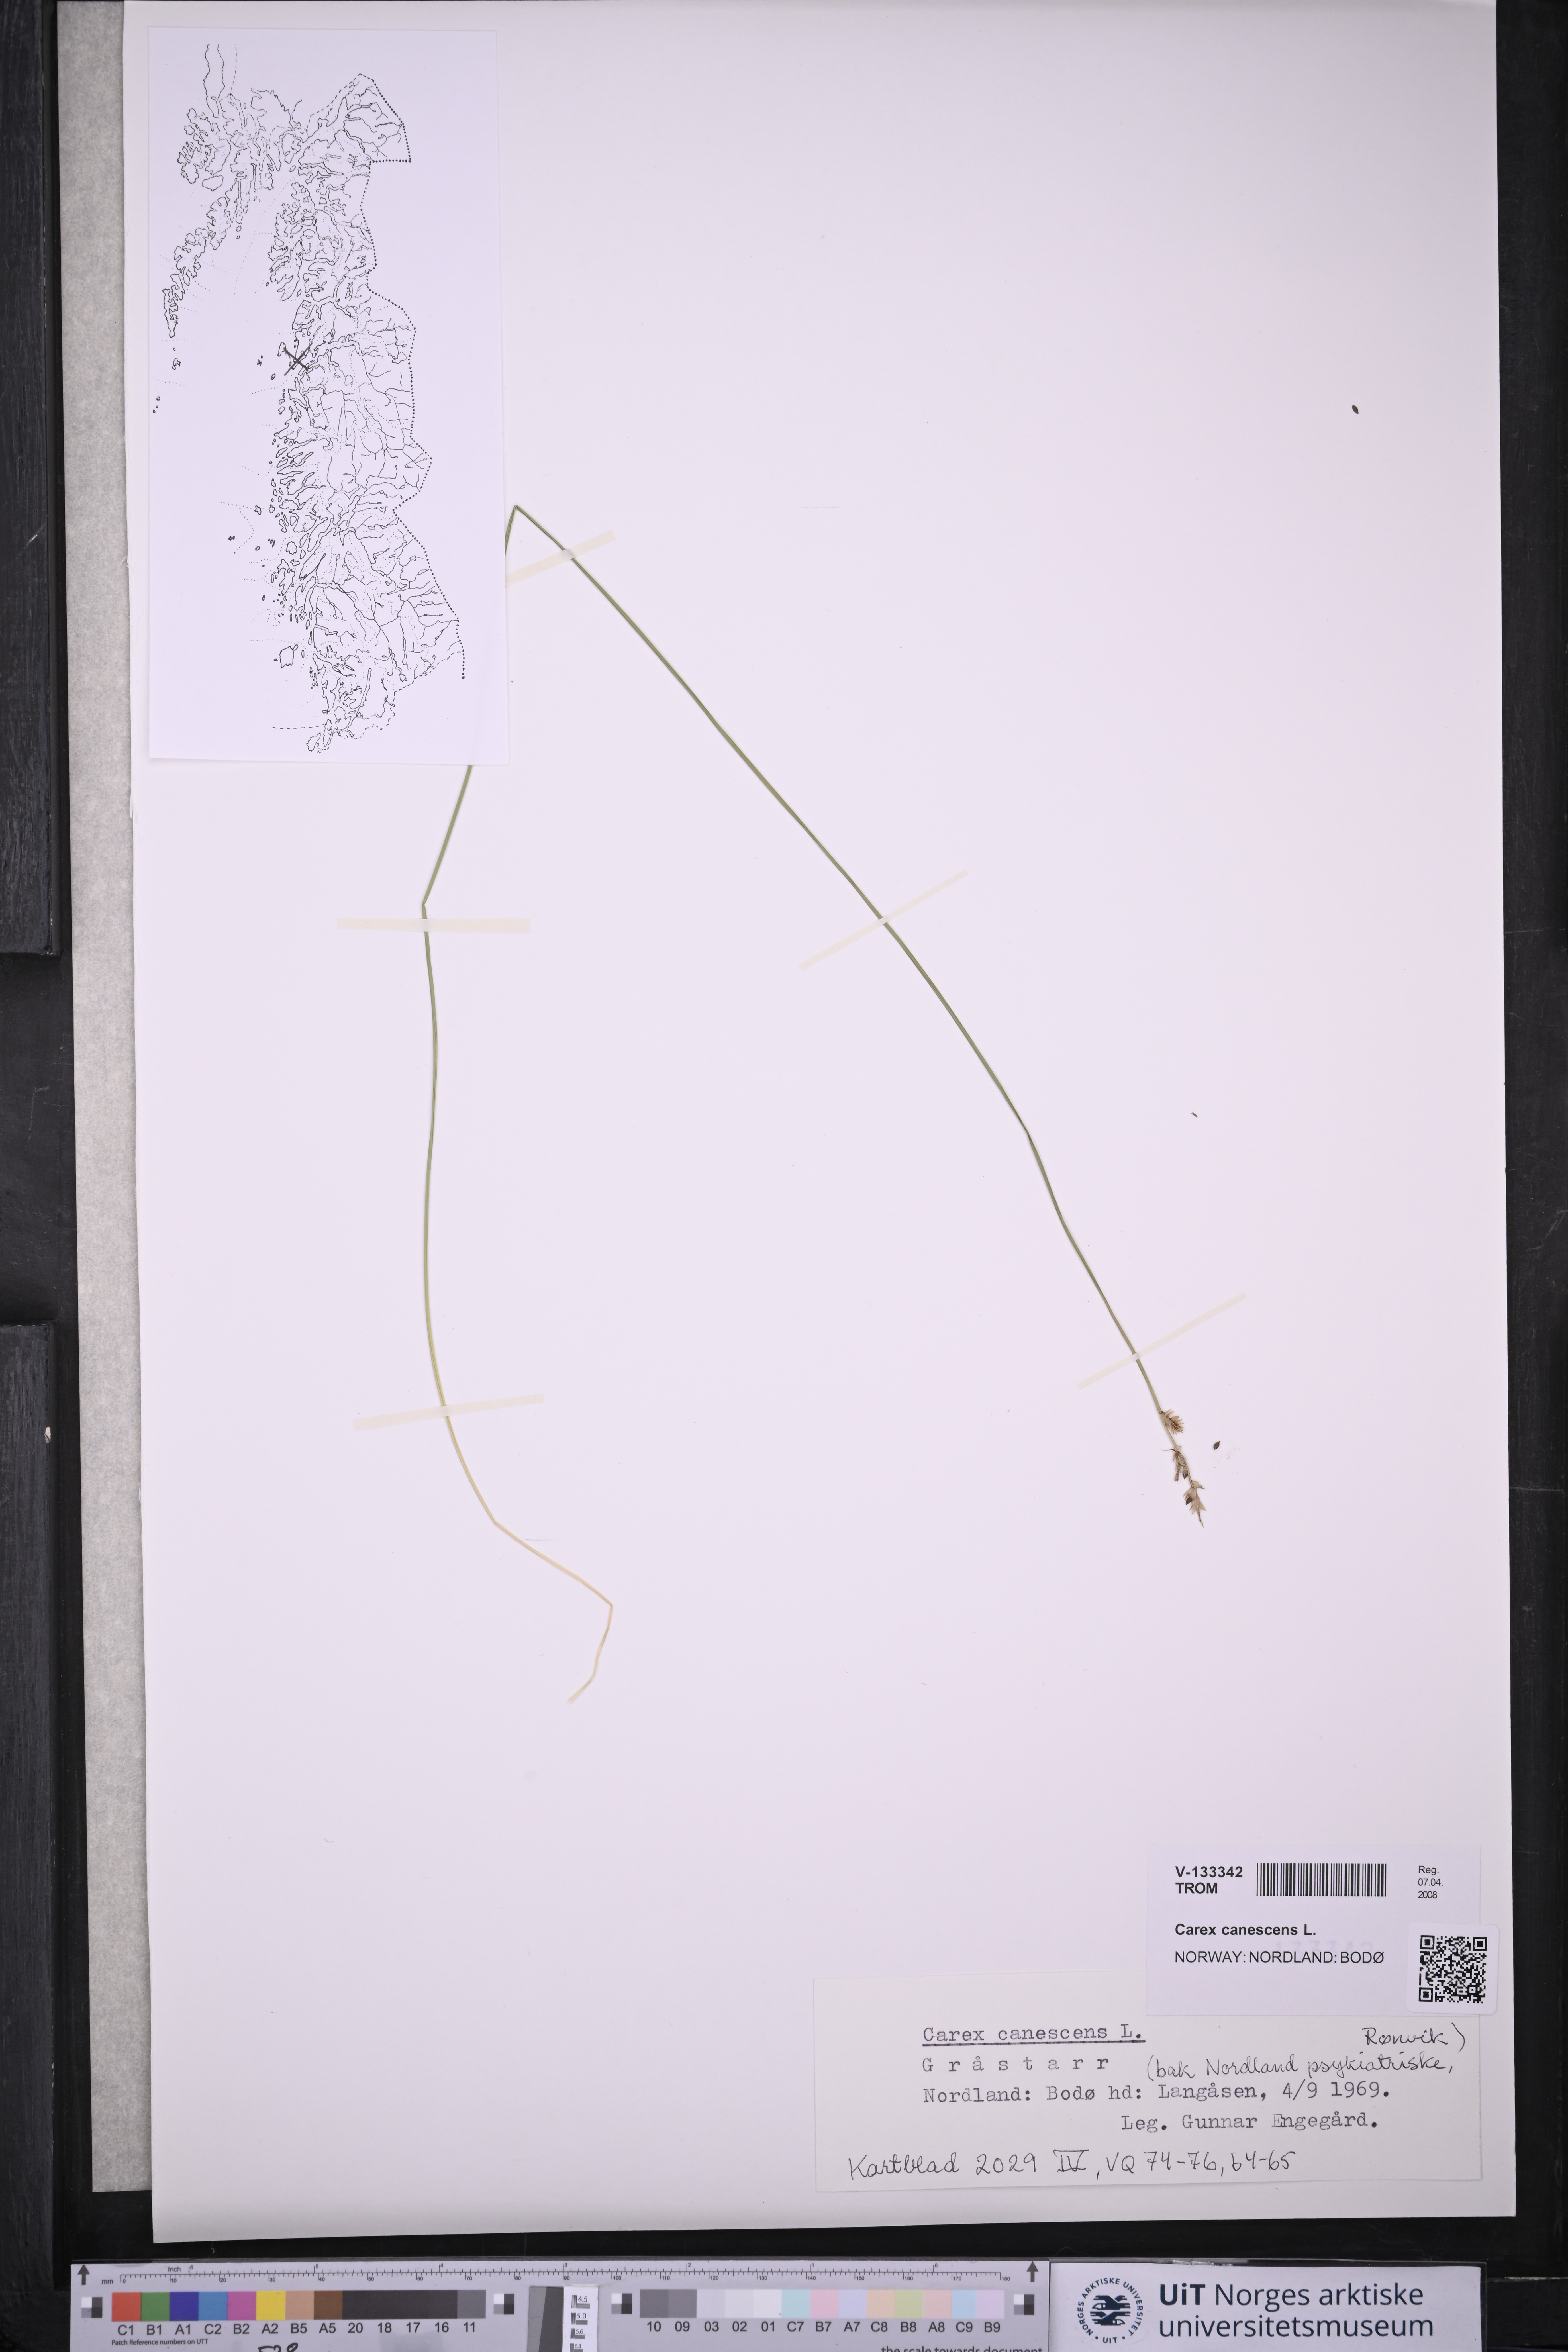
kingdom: Plantae
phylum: Tracheophyta
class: Liliopsida
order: Poales
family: Cyperaceae
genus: Carex
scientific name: Carex canescens
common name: White sedge
